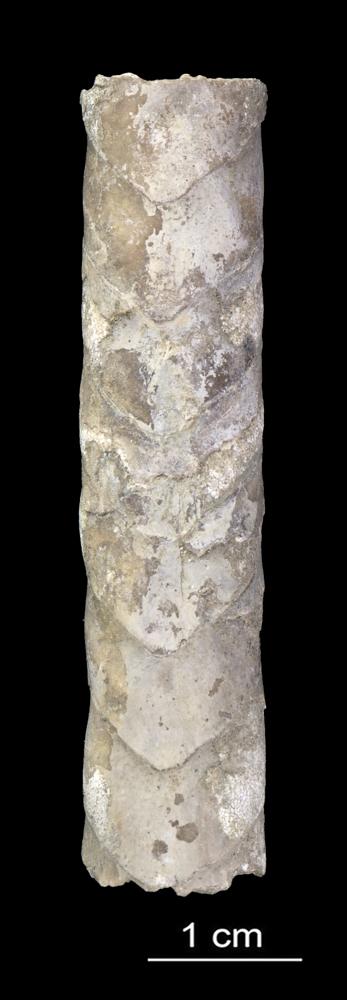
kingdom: Animalia
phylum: Mollusca
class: Cephalopoda
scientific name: Cephalopoda
